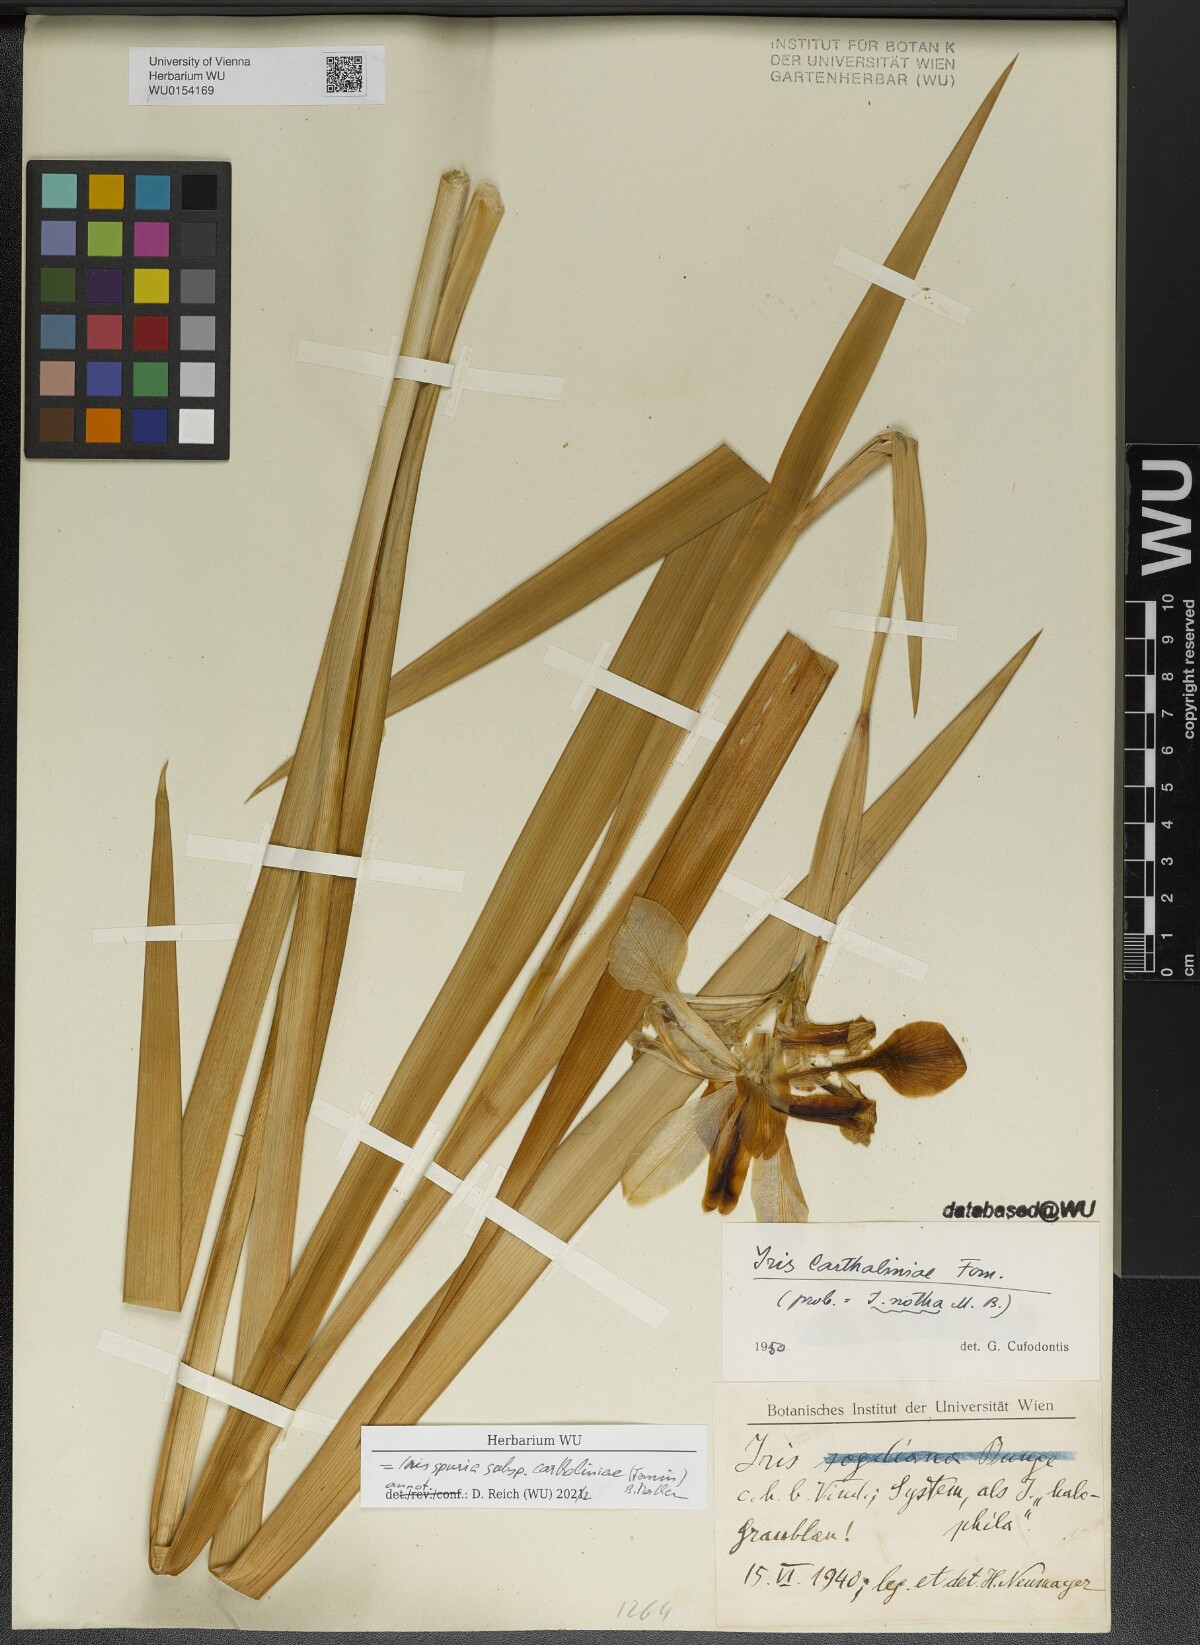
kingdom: Plantae
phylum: Tracheophyta
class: Liliopsida
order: Asparagales
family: Iridaceae
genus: Iris
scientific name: Iris spuria
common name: Blue iris
